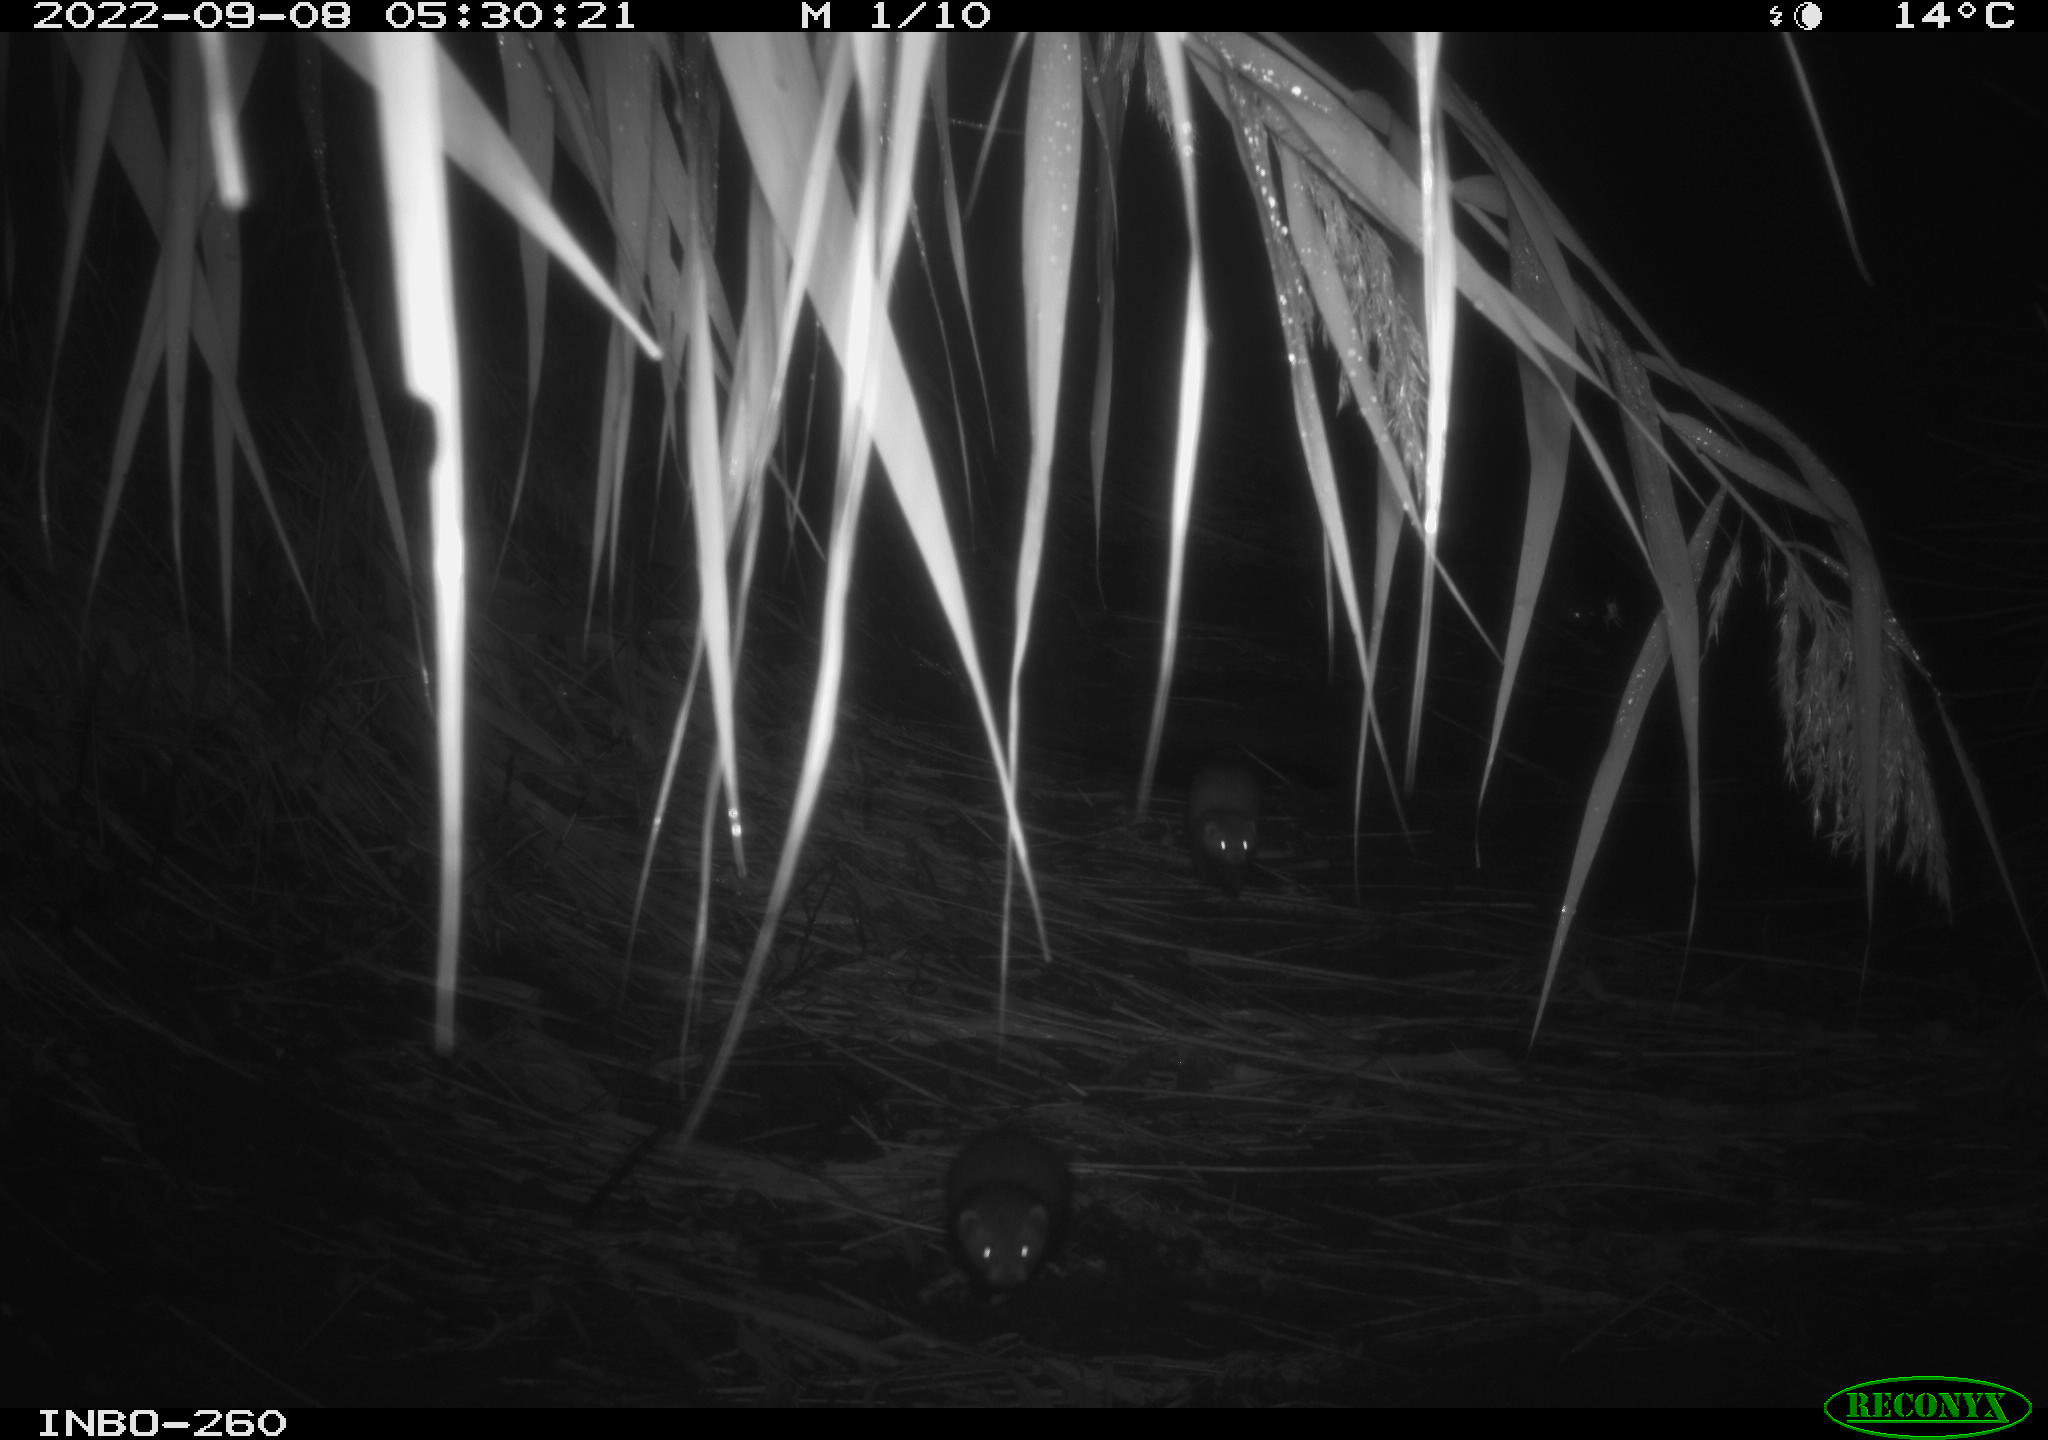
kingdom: Animalia
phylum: Chordata
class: Mammalia
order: Carnivora
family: Mustelidae
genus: Mustela
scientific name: Mustela putorius
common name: European polecat
